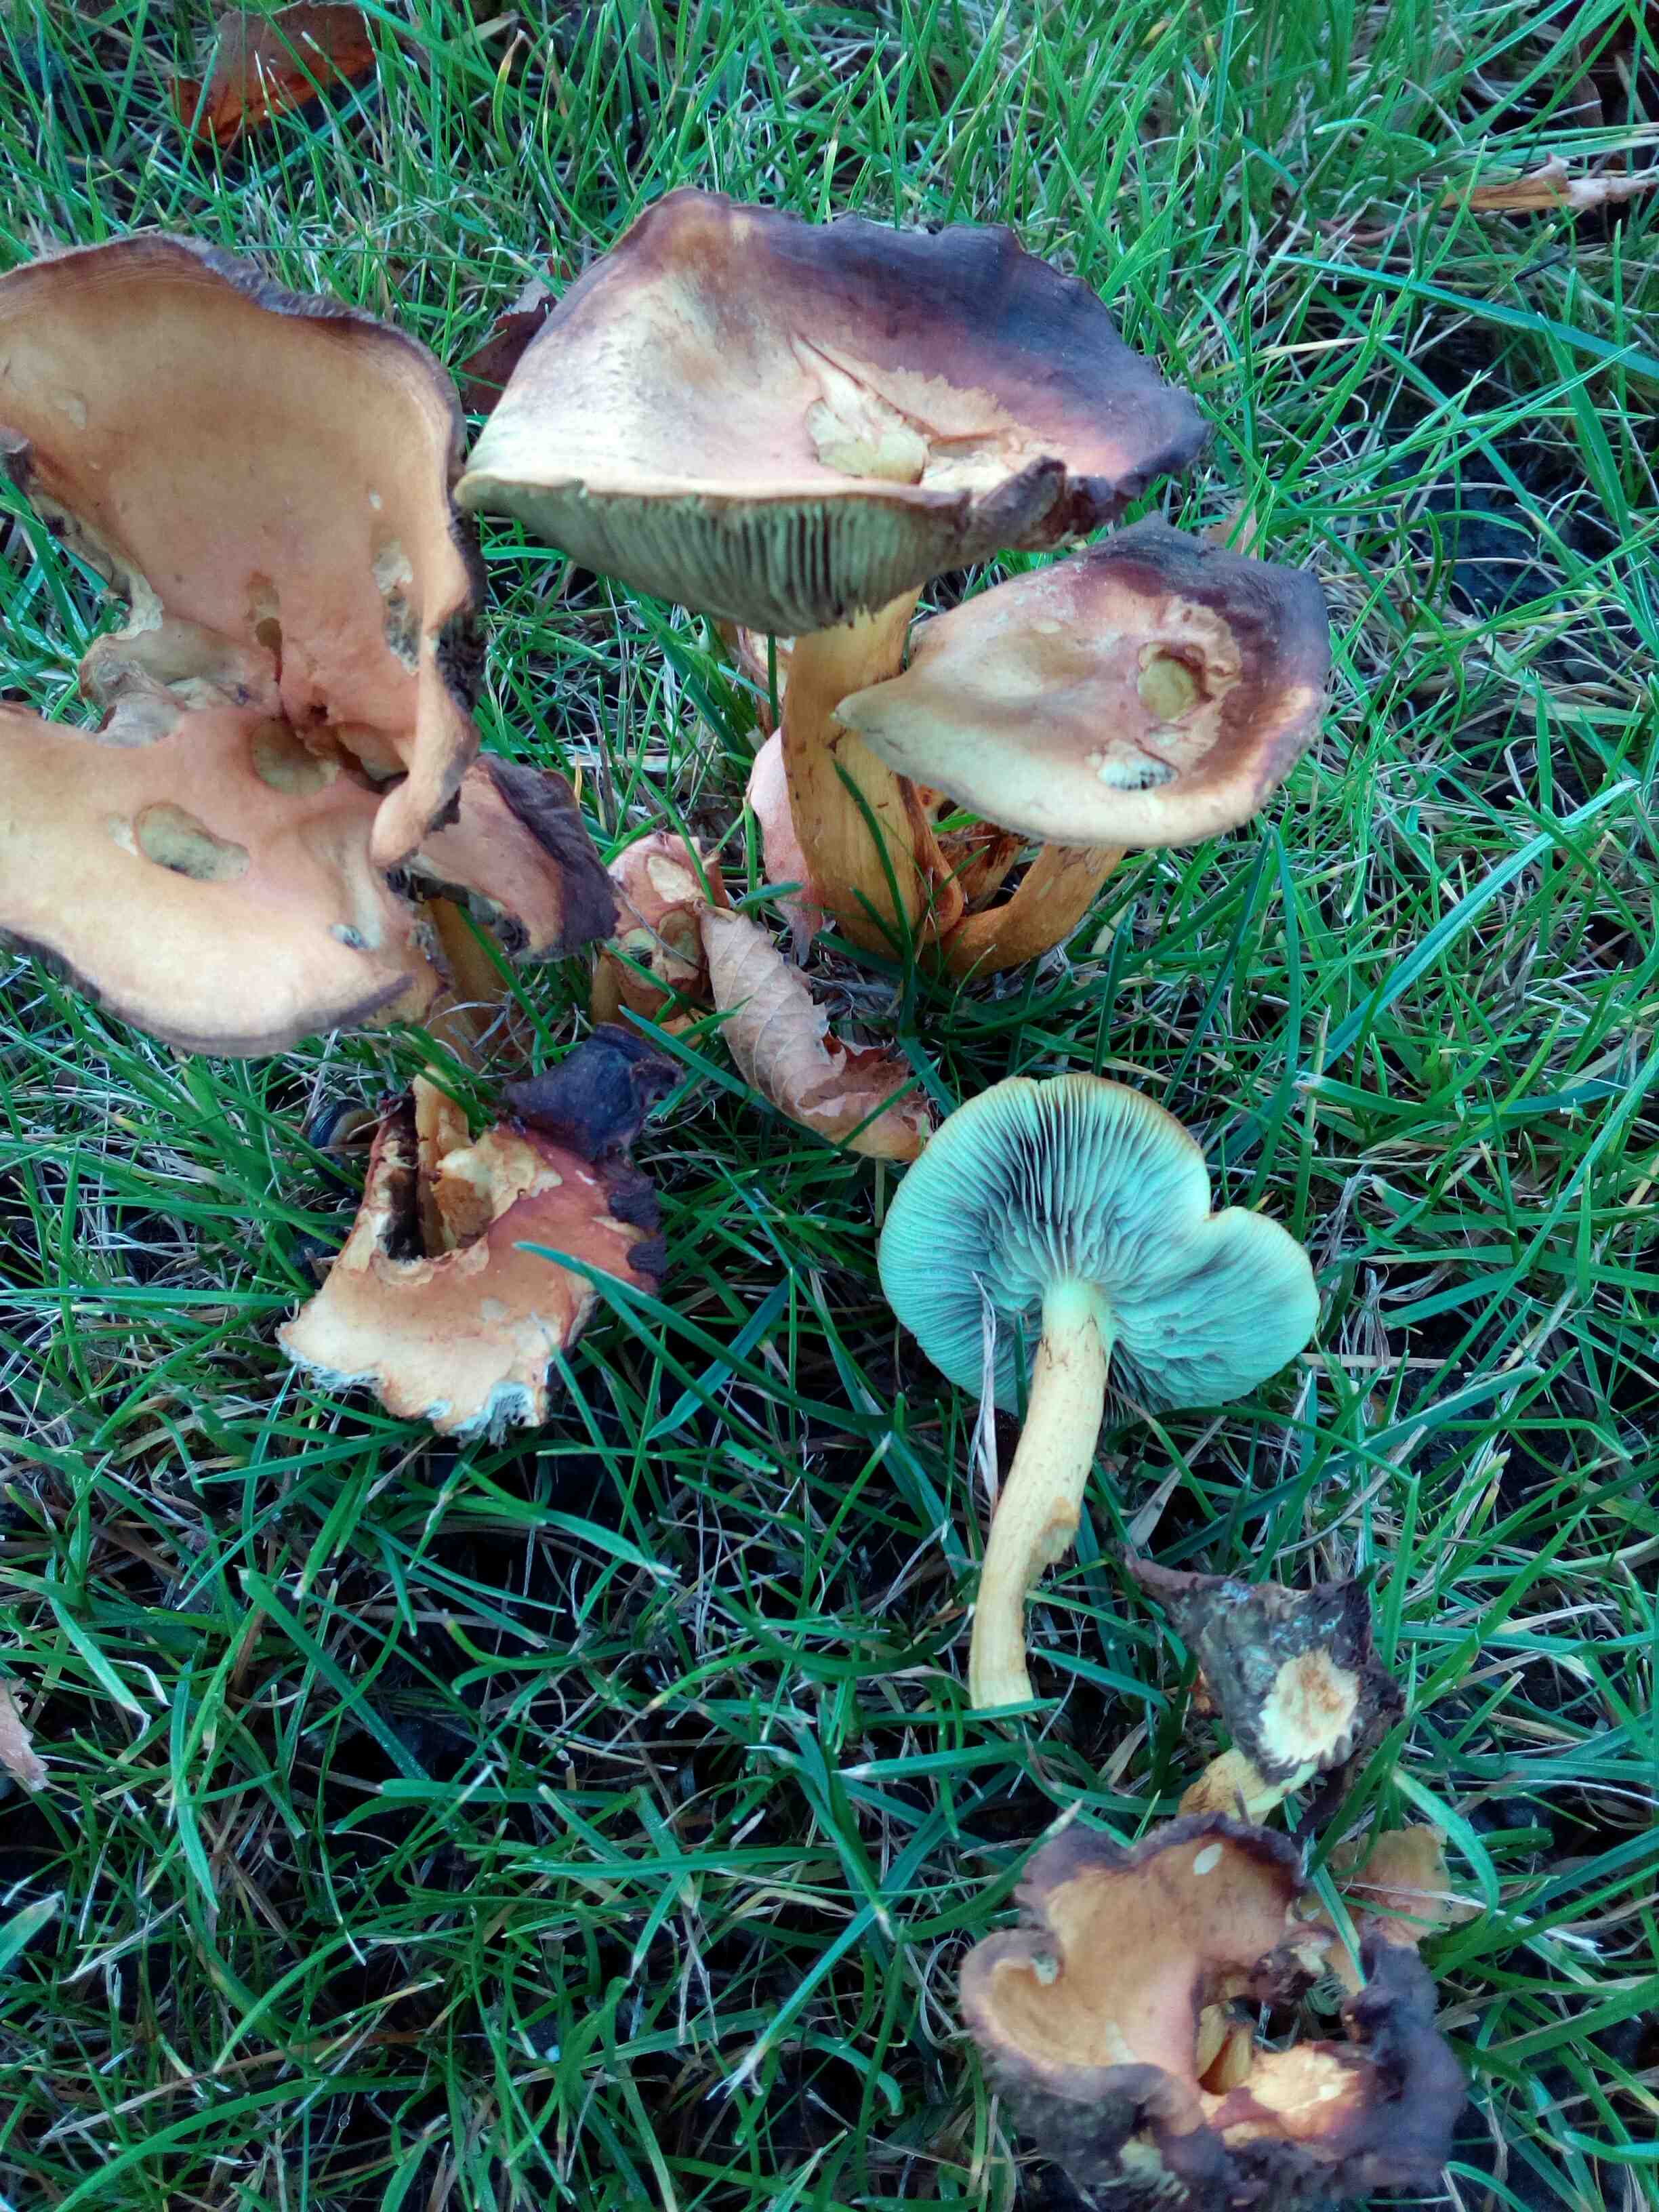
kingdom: Fungi
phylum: Basidiomycota
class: Agaricomycetes
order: Agaricales
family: Strophariaceae
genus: Hypholoma
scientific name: Hypholoma fasciculare
